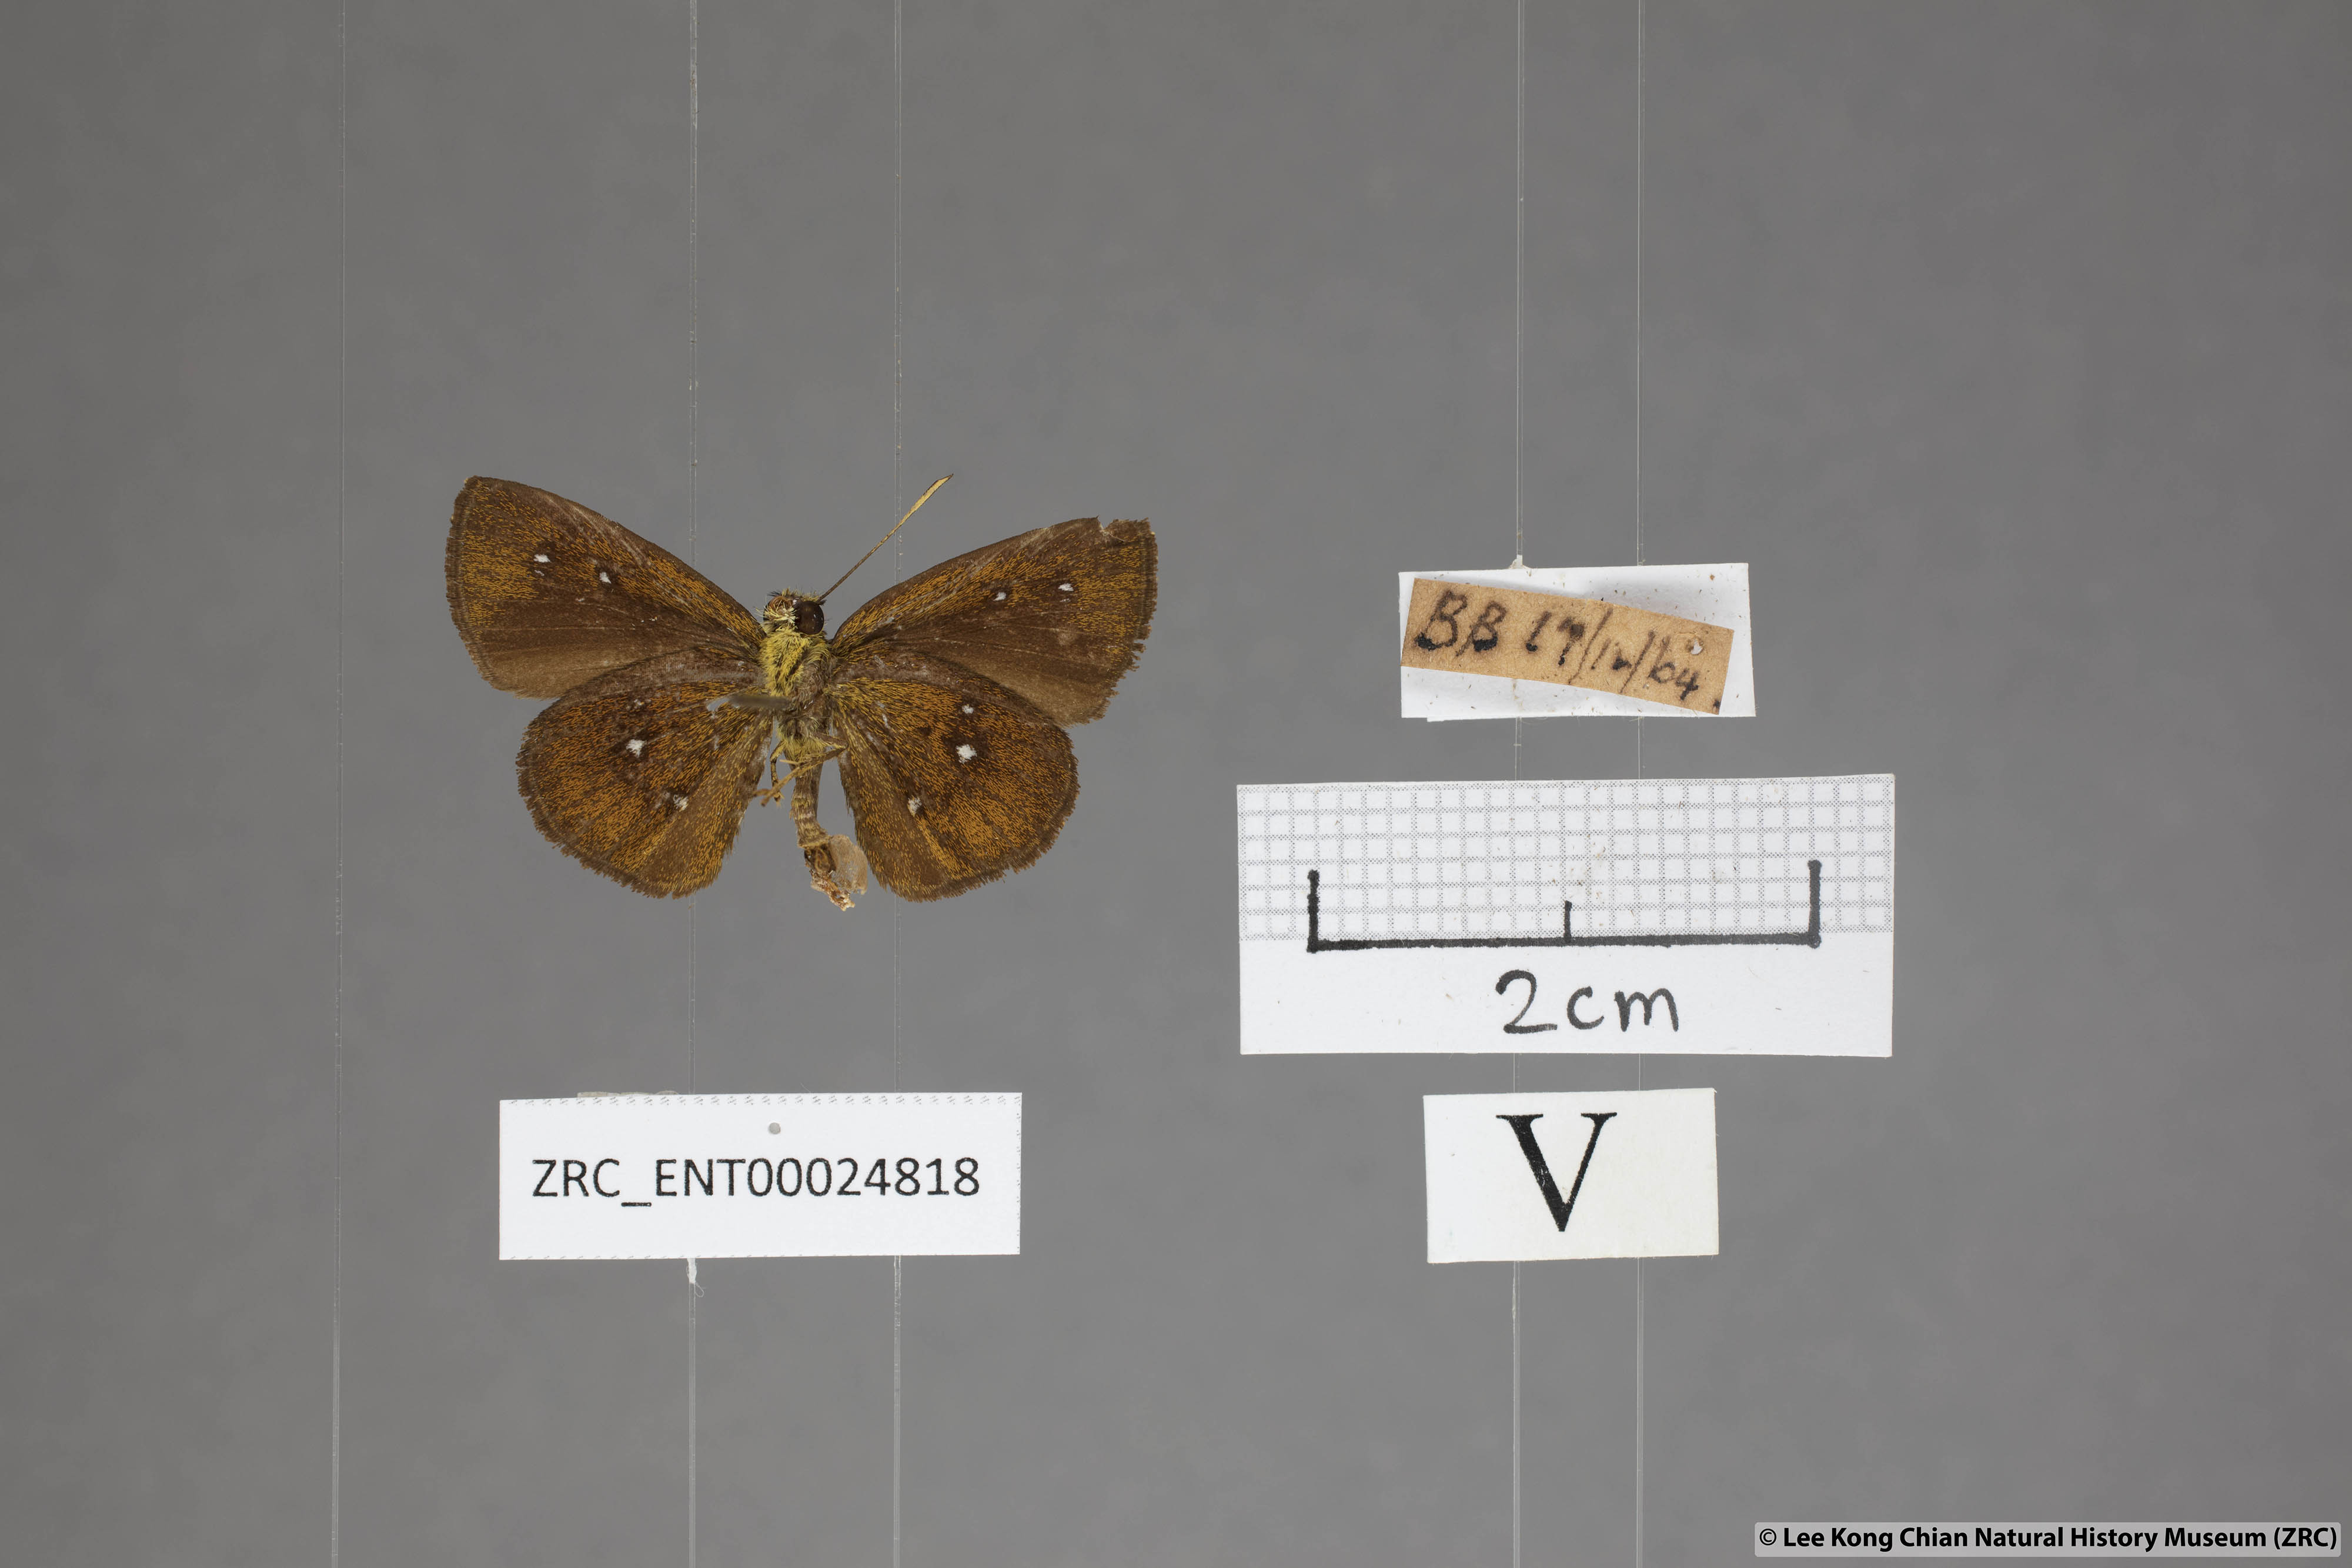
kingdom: Animalia
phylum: Arthropoda
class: Insecta
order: Lepidoptera
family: Hesperiidae
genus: Iambrix
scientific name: Iambrix salsala
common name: Chestnut bob
